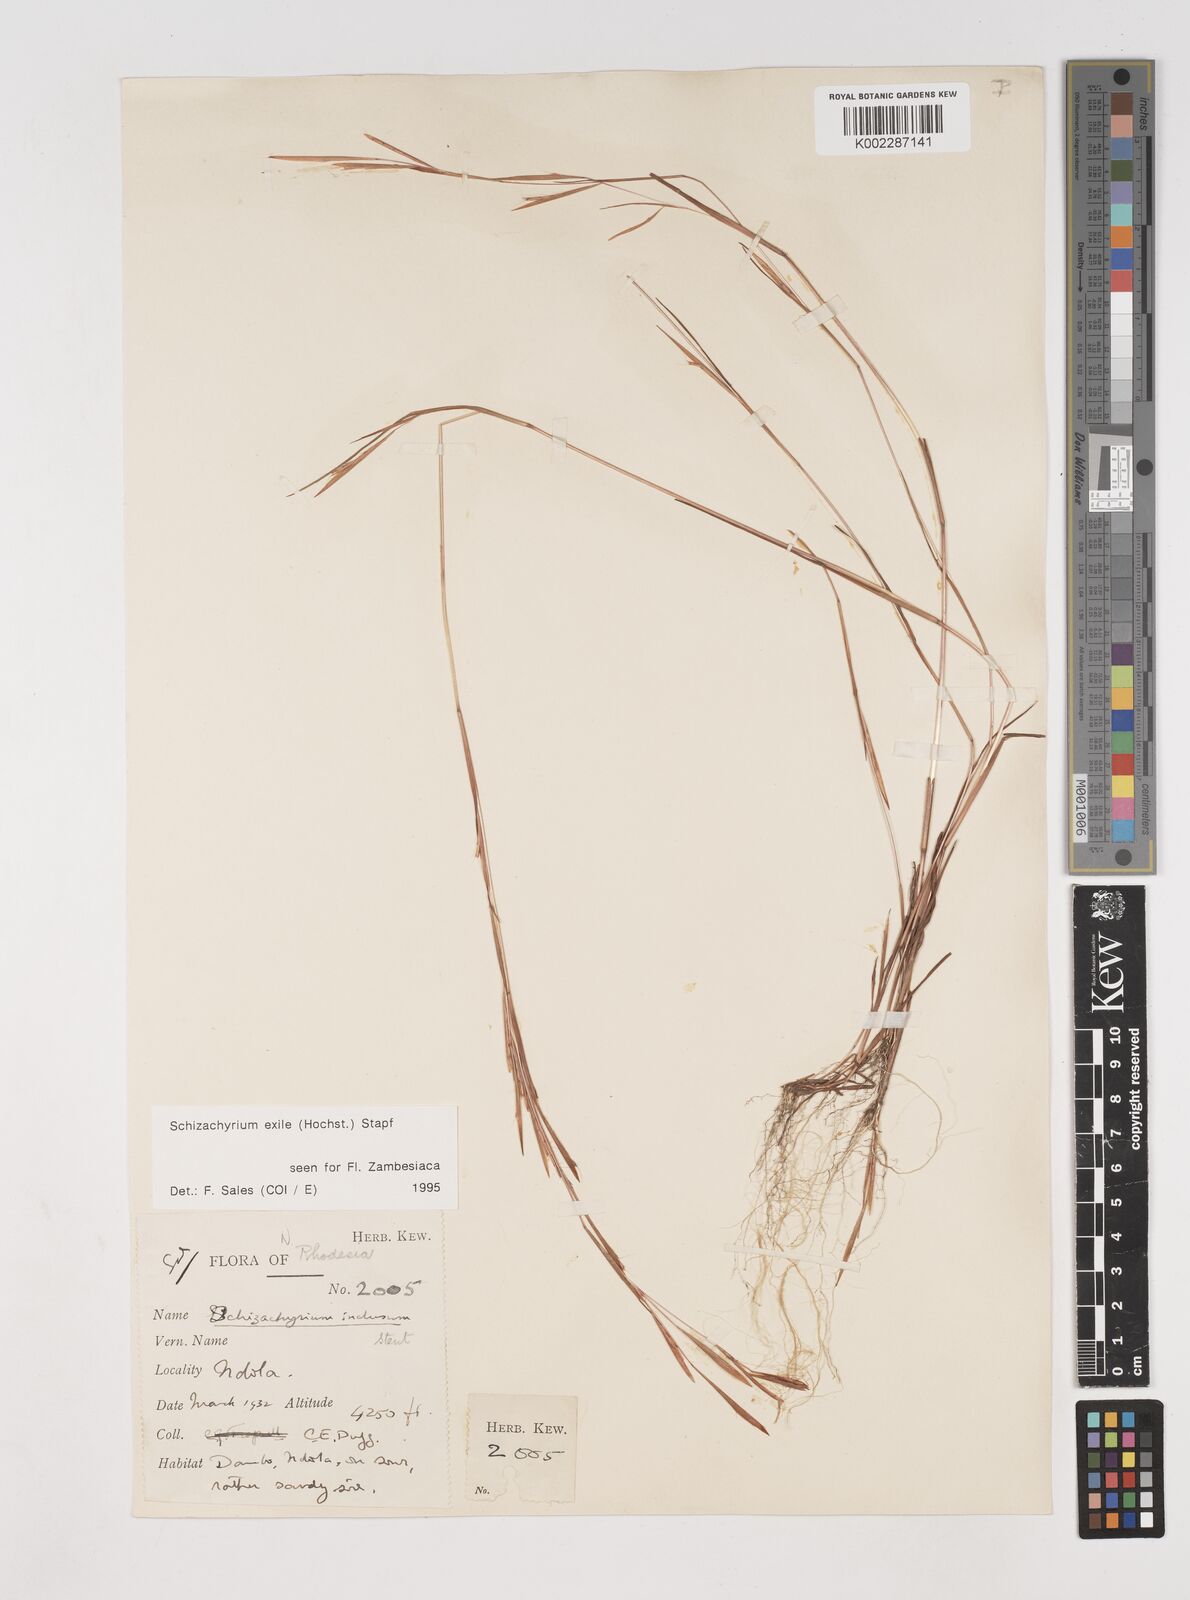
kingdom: Plantae
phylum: Tracheophyta
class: Liliopsida
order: Poales
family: Poaceae
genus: Schizachyrium
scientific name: Schizachyrium exile
